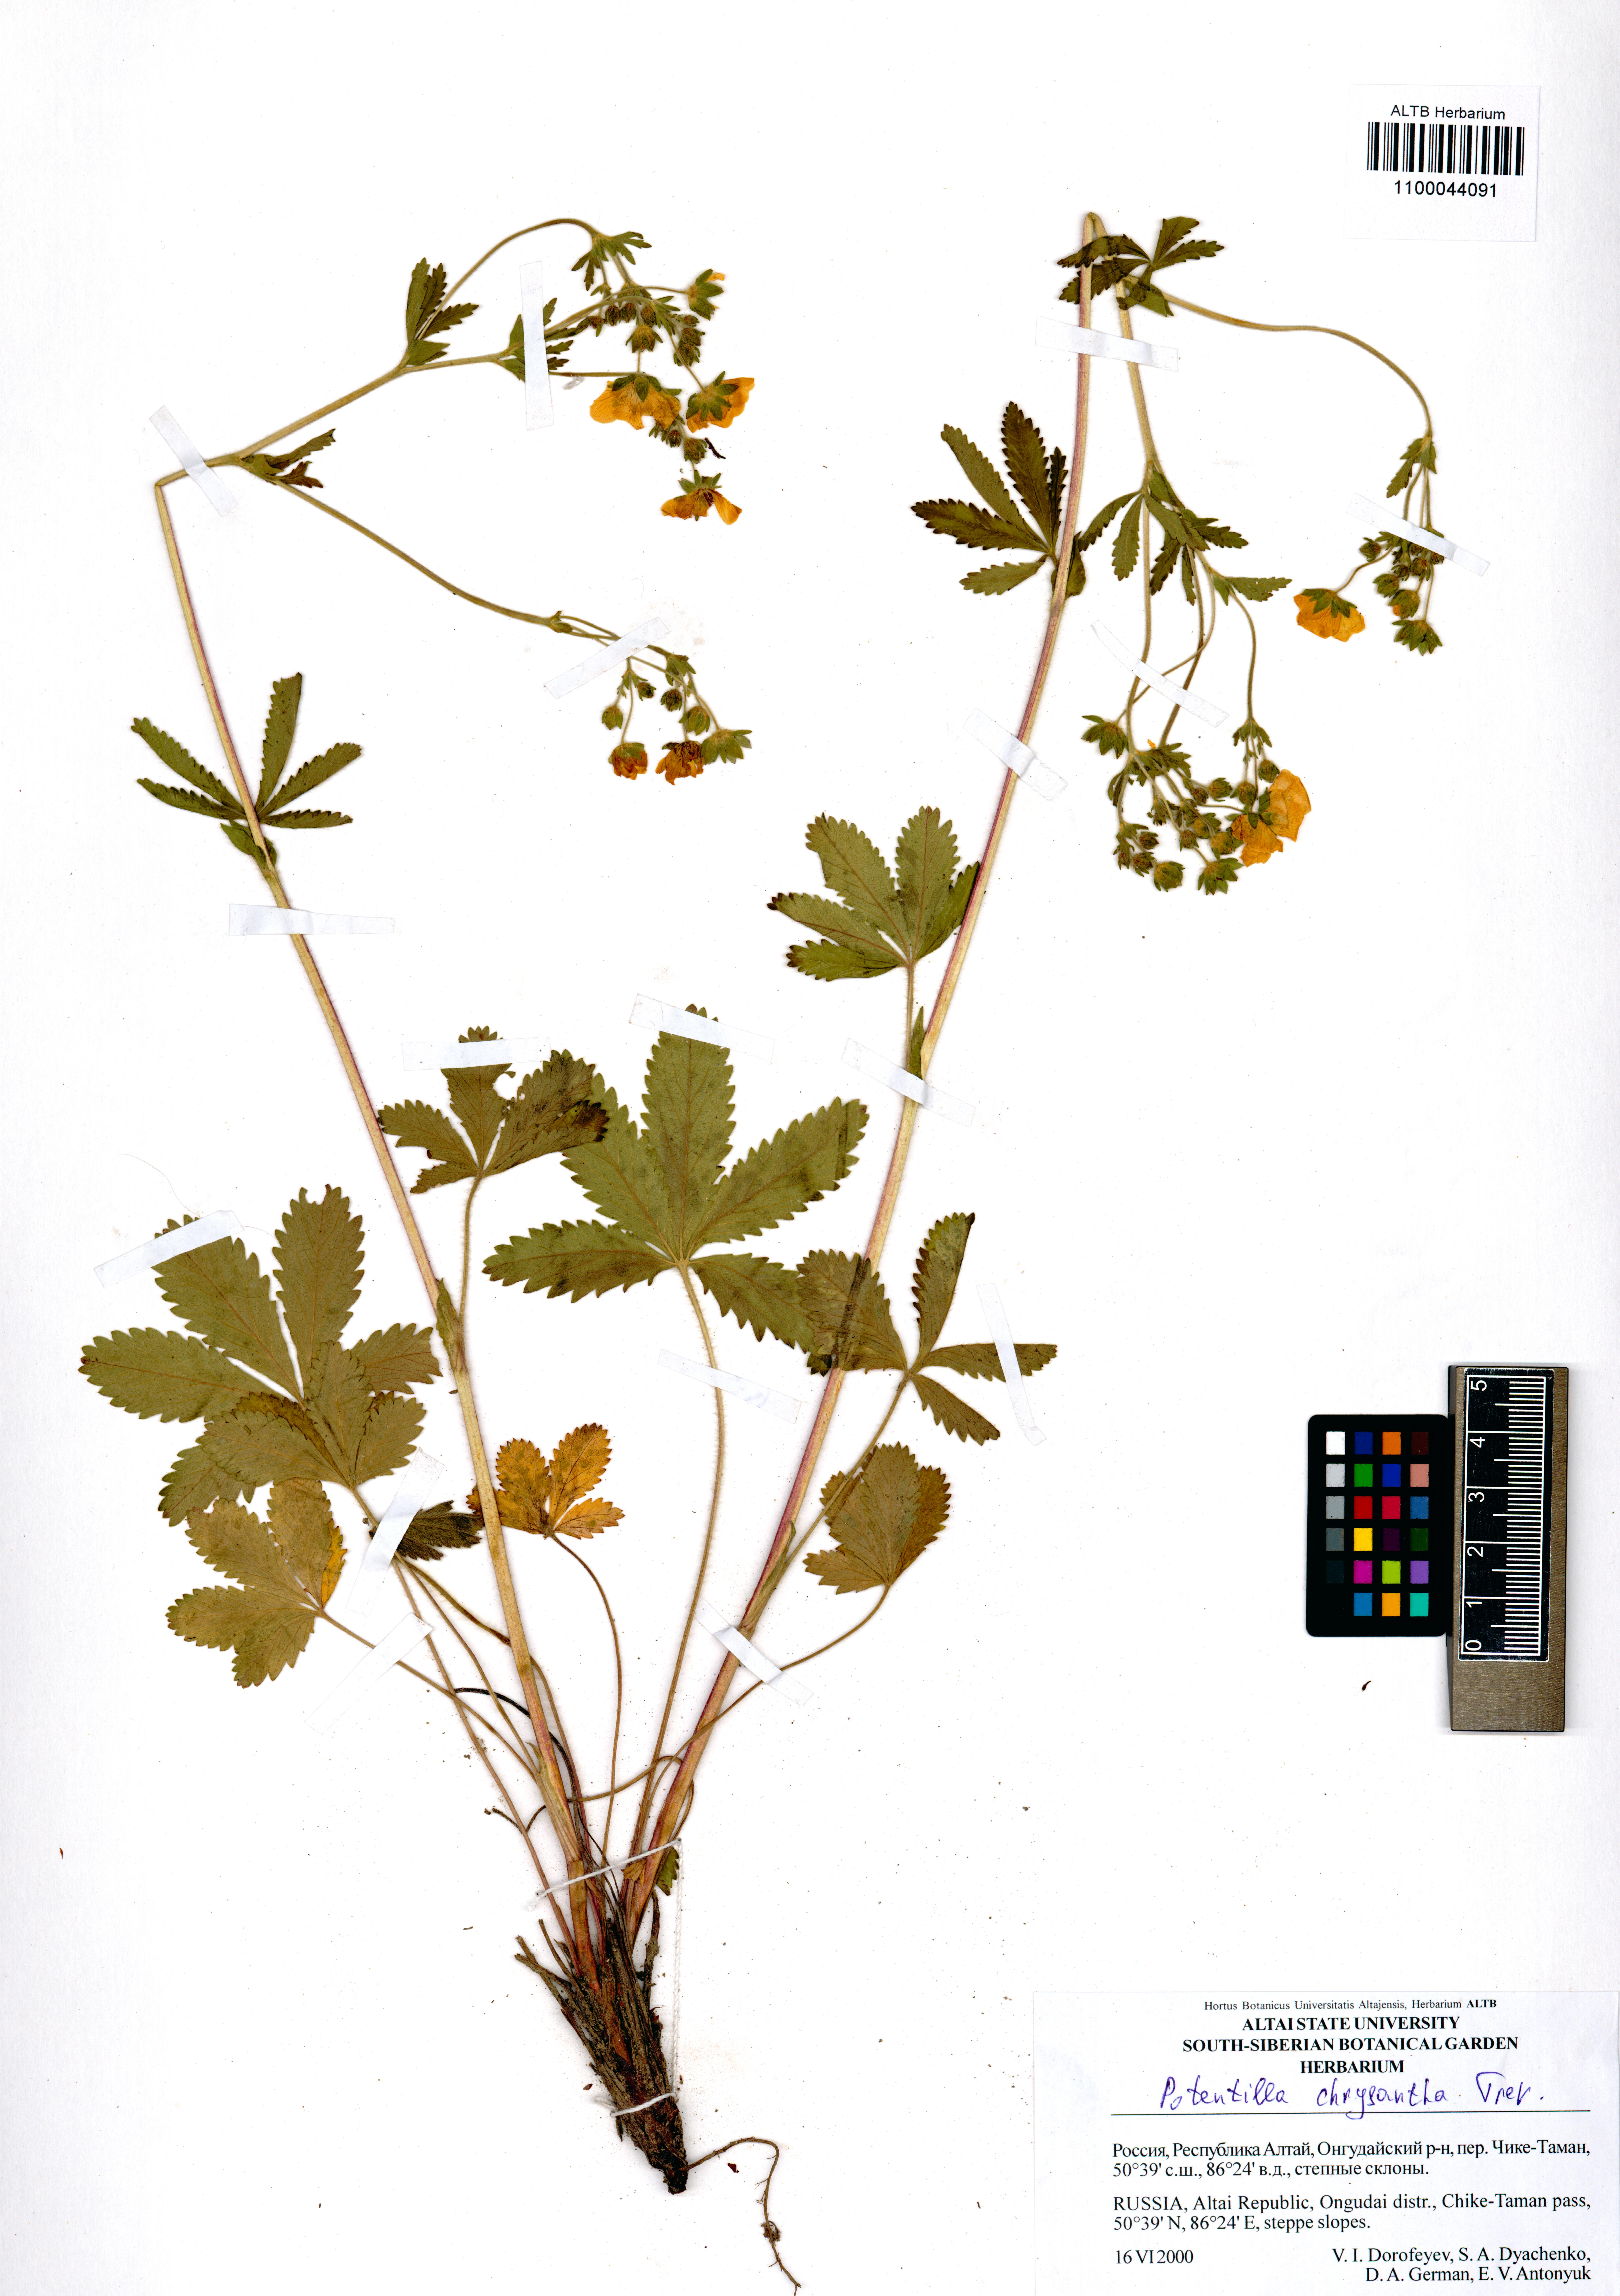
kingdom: Plantae
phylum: Tracheophyta
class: Magnoliopsida
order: Rosales
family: Rosaceae
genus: Potentilla
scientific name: Potentilla chrysantha
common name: Thuringian cinquefoil
